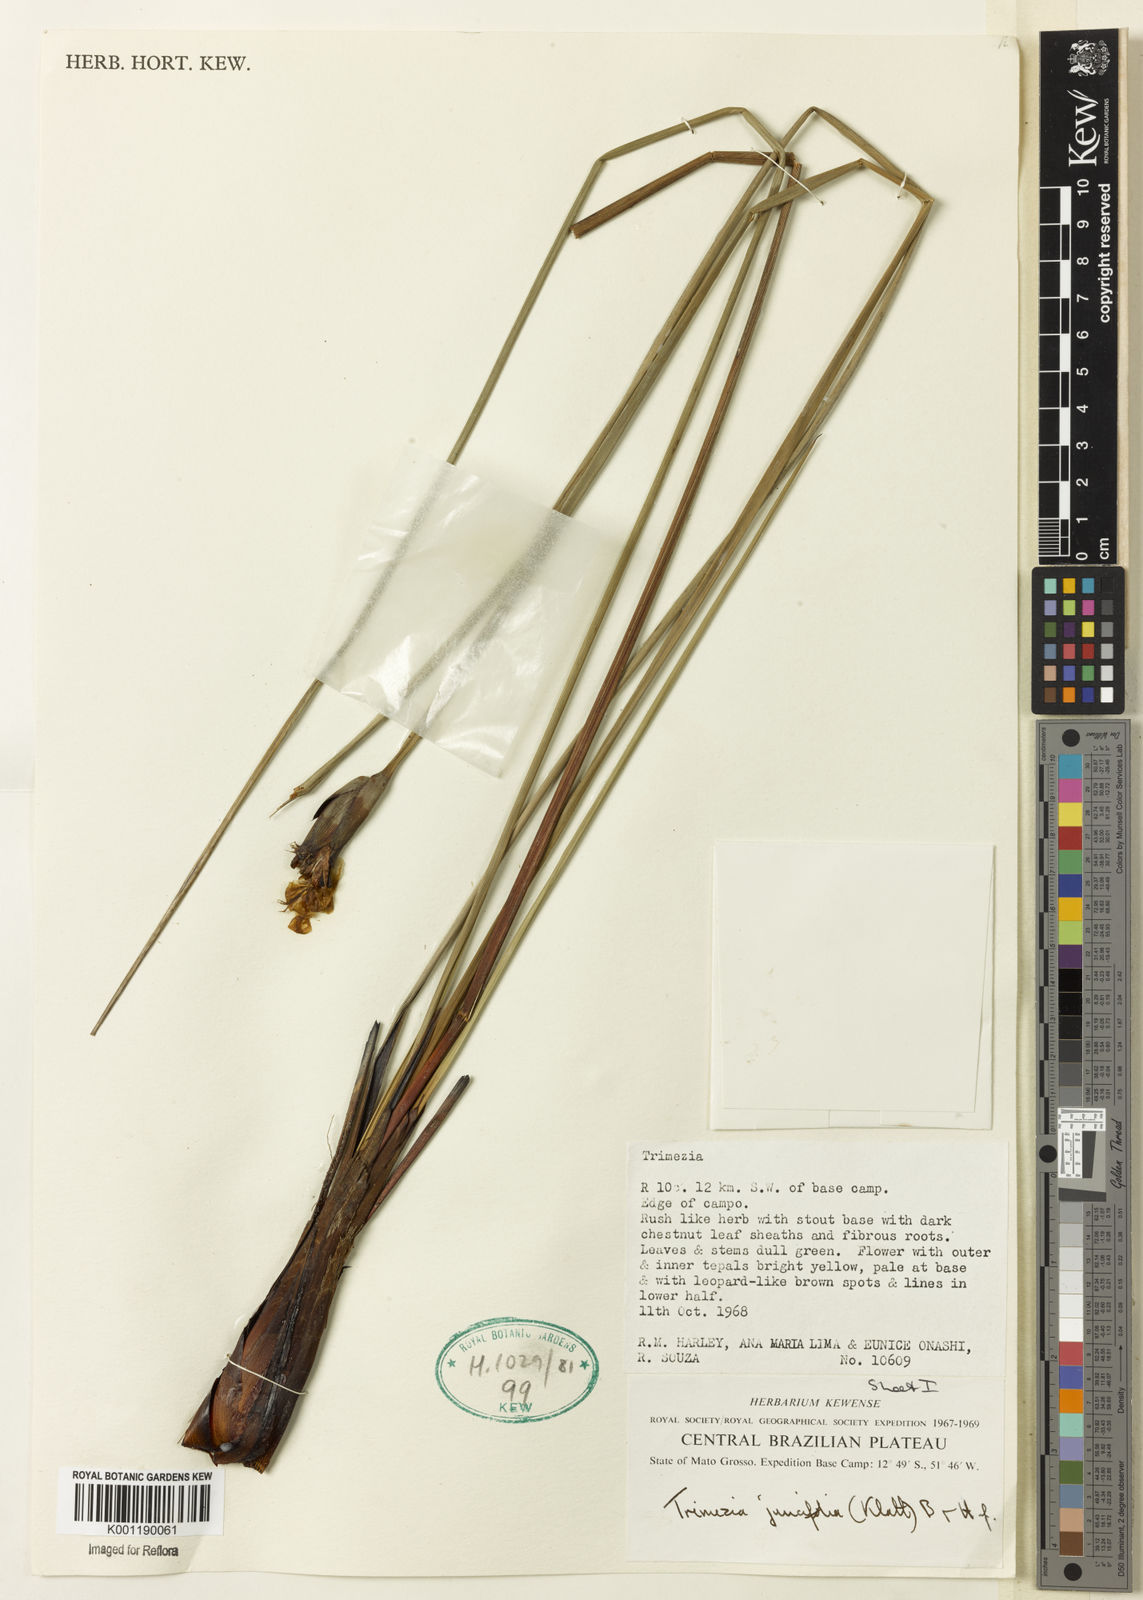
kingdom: Plantae
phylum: Tracheophyta
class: Liliopsida
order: Asparagales
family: Iridaceae
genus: Trimezia
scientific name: Trimezia juncifolia
